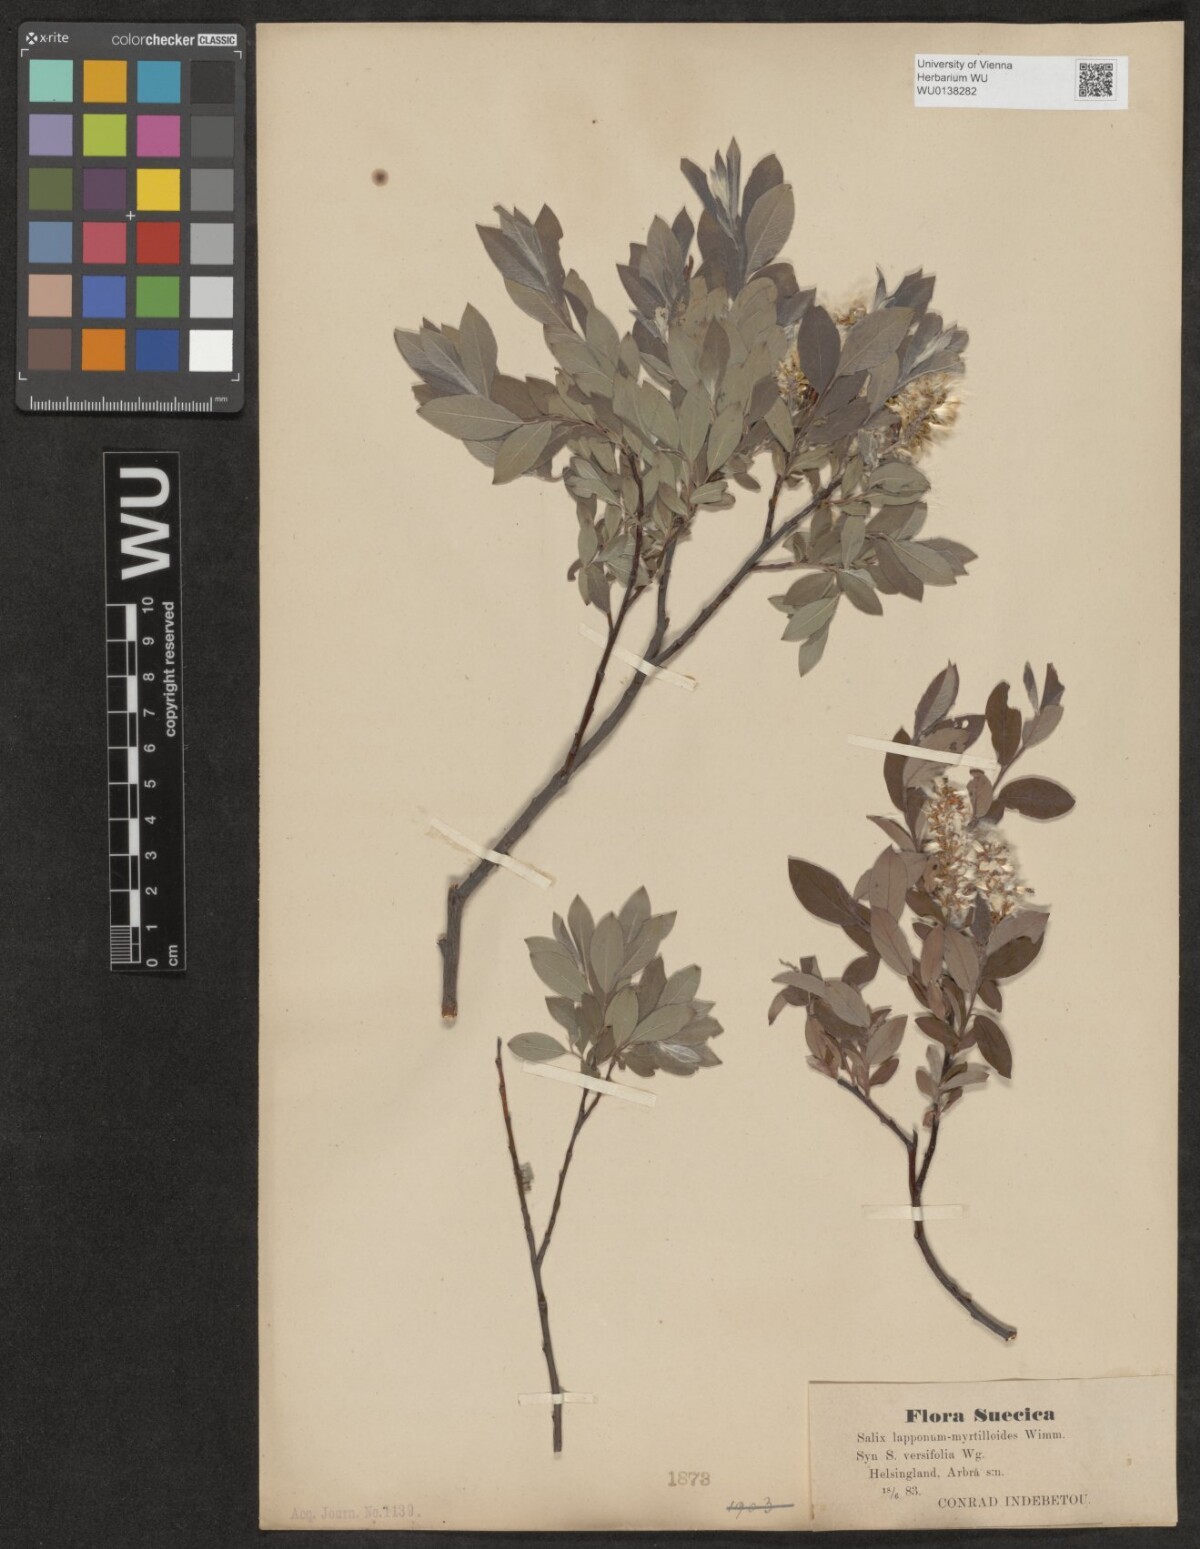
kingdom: Plantae
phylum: Tracheophyta
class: Magnoliopsida
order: Malpighiales
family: Salicaceae
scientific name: Salicaceae
